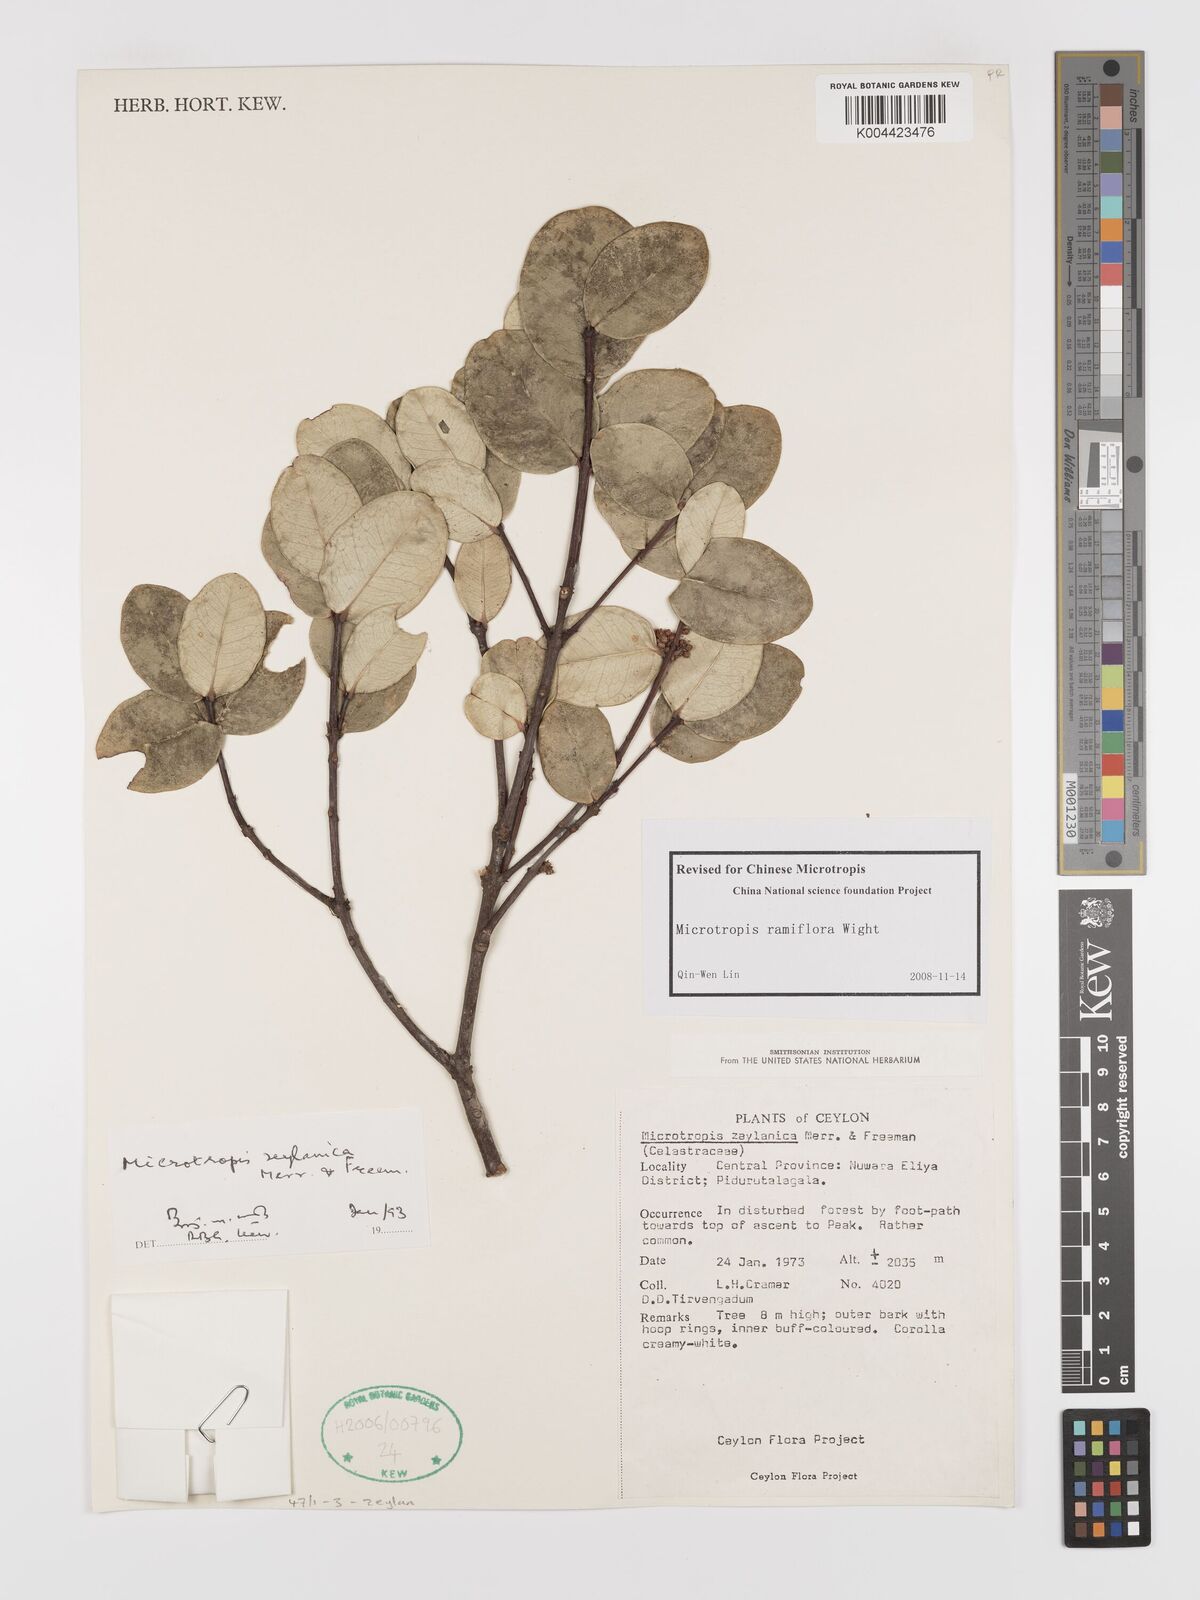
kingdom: Plantae
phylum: Tracheophyta
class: Magnoliopsida
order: Celastrales
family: Celastraceae
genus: Microtropis
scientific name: Microtropis ramiflora
